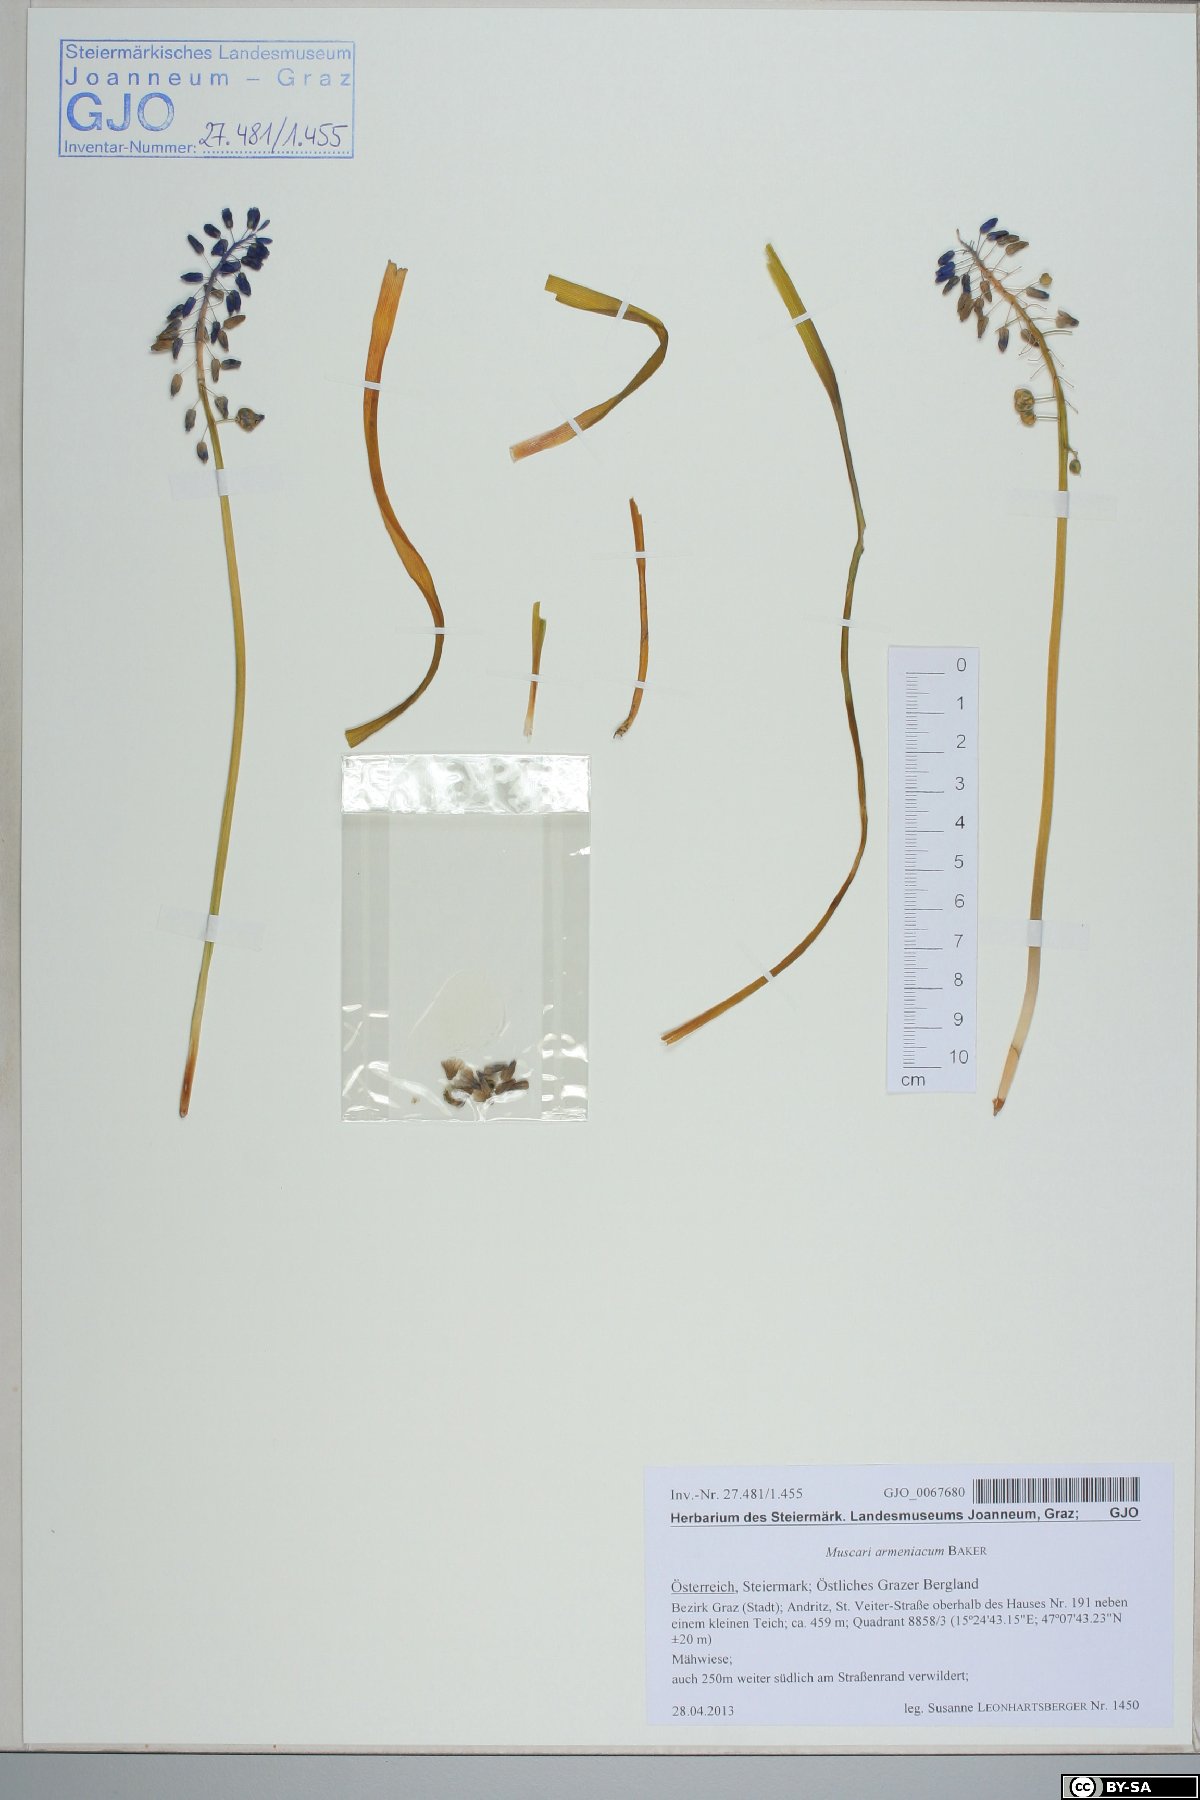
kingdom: Plantae
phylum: Tracheophyta
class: Liliopsida
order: Asparagales
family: Asparagaceae
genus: Muscari
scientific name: Muscari armeniacum
